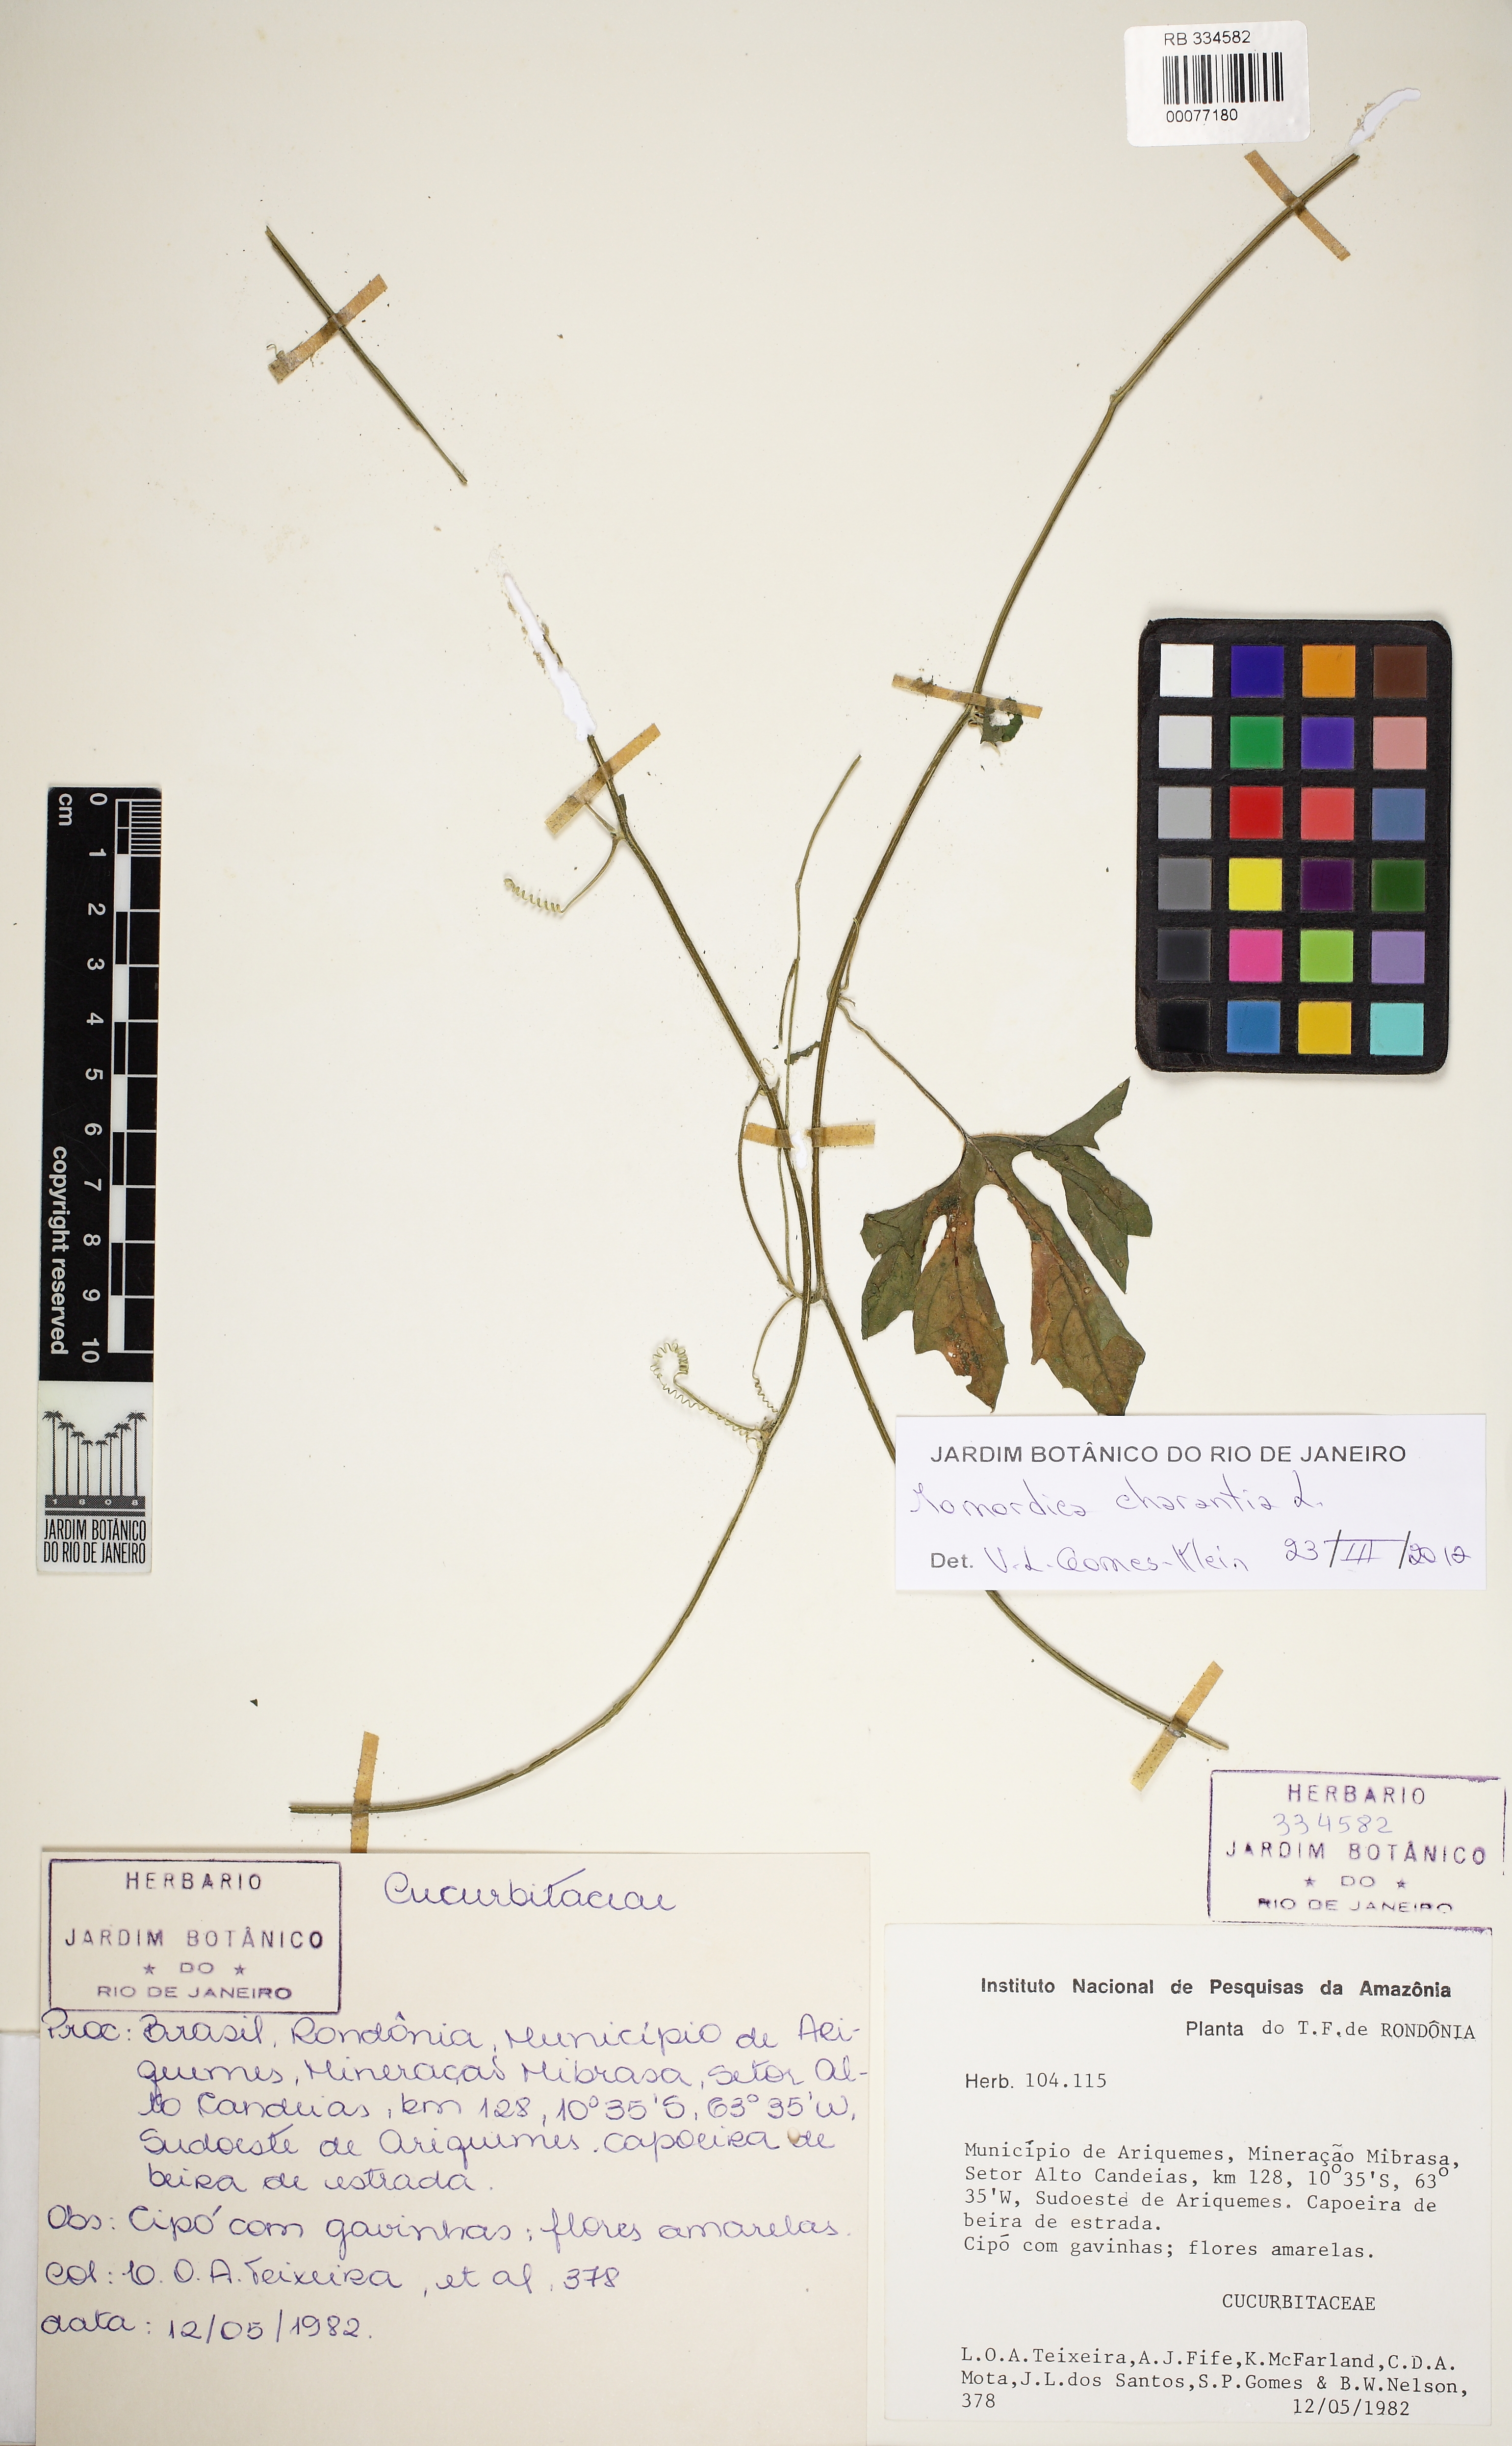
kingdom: Plantae
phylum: Tracheophyta
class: Magnoliopsida
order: Cucurbitales
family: Cucurbitaceae
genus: Momordica
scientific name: Momordica charantia
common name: Balsampear
